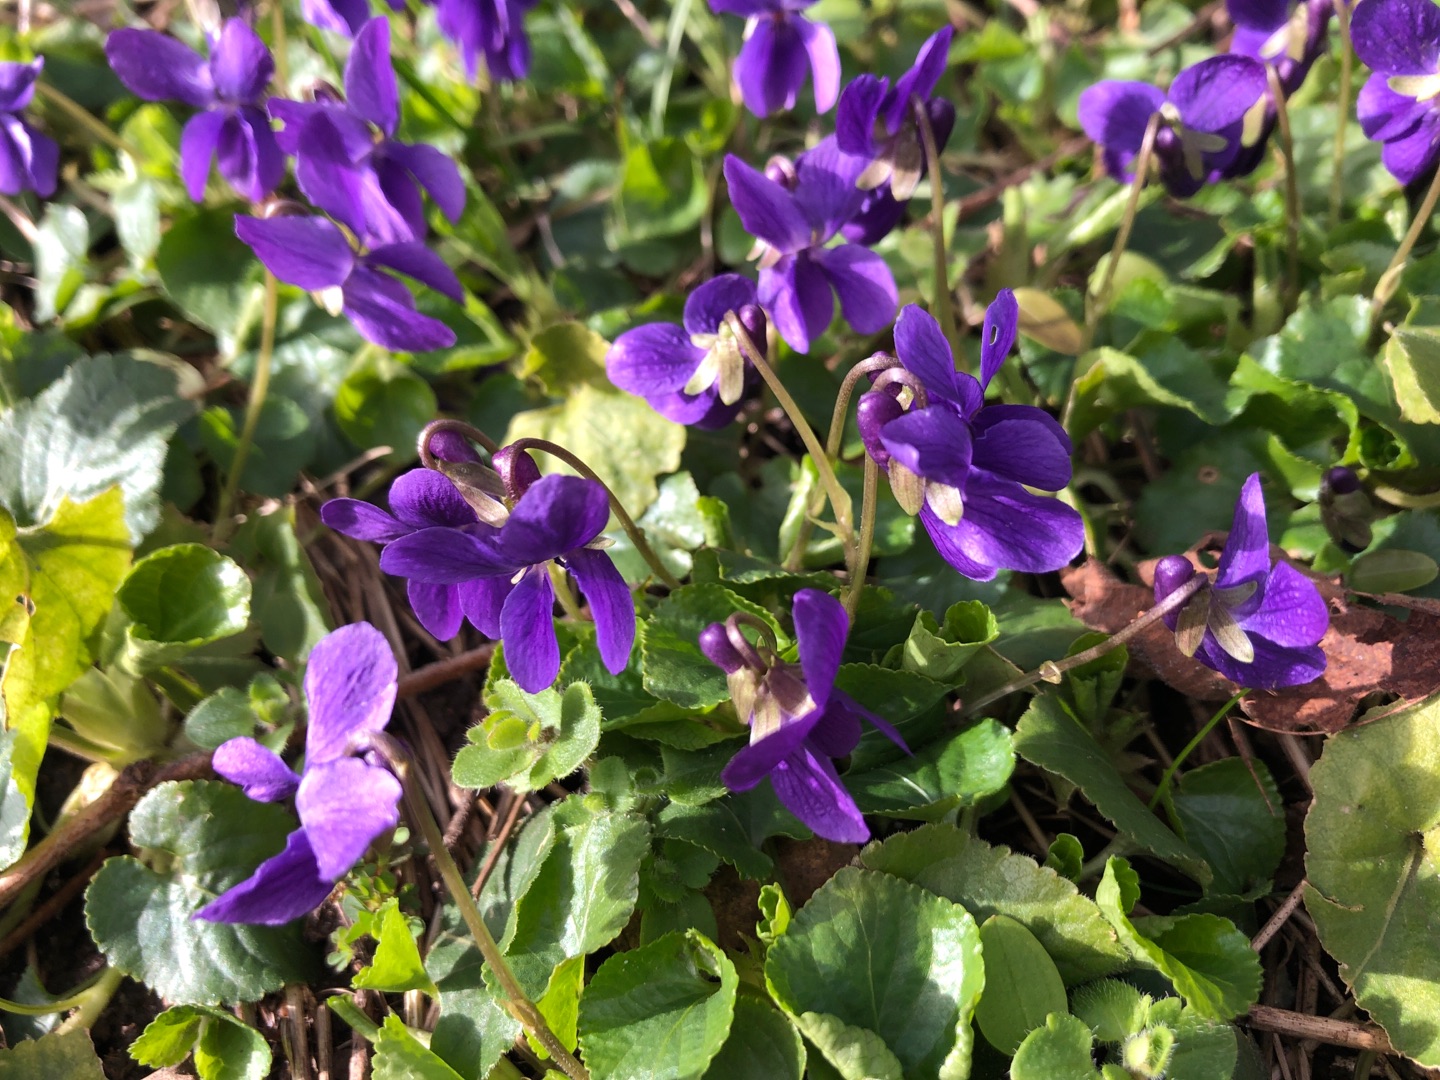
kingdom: Plantae
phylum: Tracheophyta
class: Magnoliopsida
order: Malpighiales
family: Violaceae
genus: Viola
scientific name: Viola odorata
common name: Marts-viol
